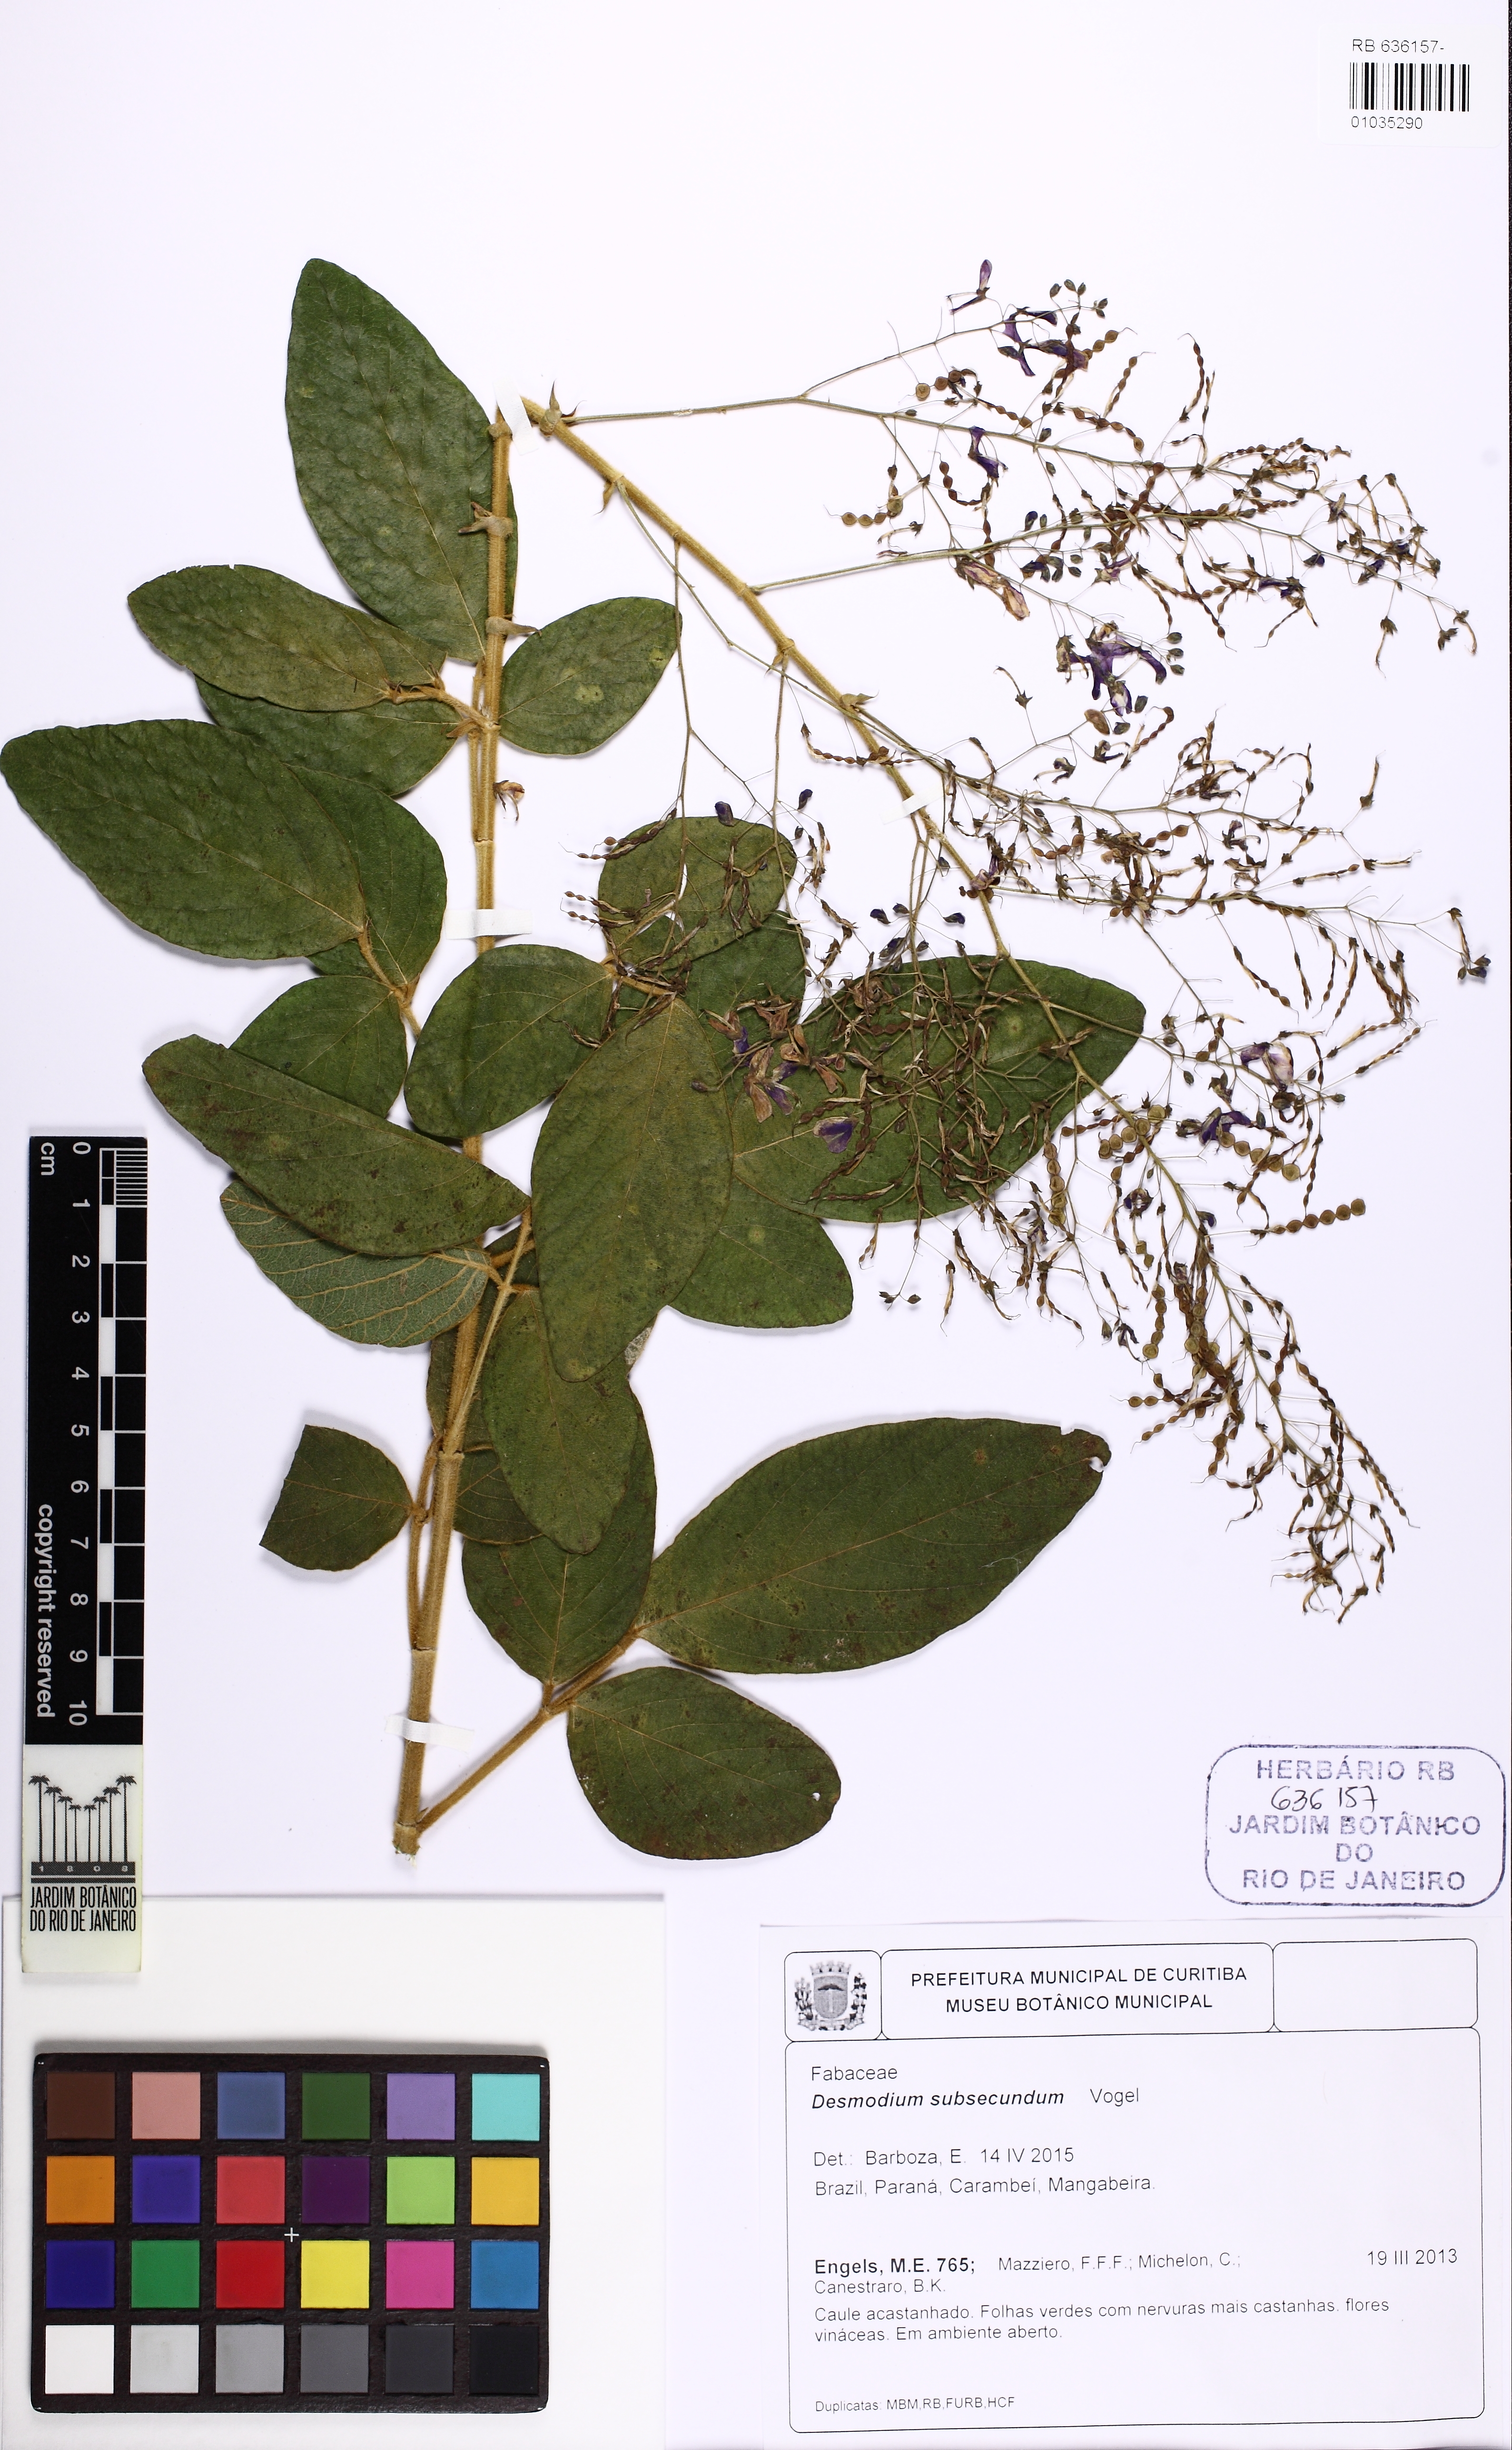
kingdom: Plantae
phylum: Tracheophyta
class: Magnoliopsida
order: Fabales
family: Fabaceae
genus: Desmodium
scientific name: Desmodium subsecundum
